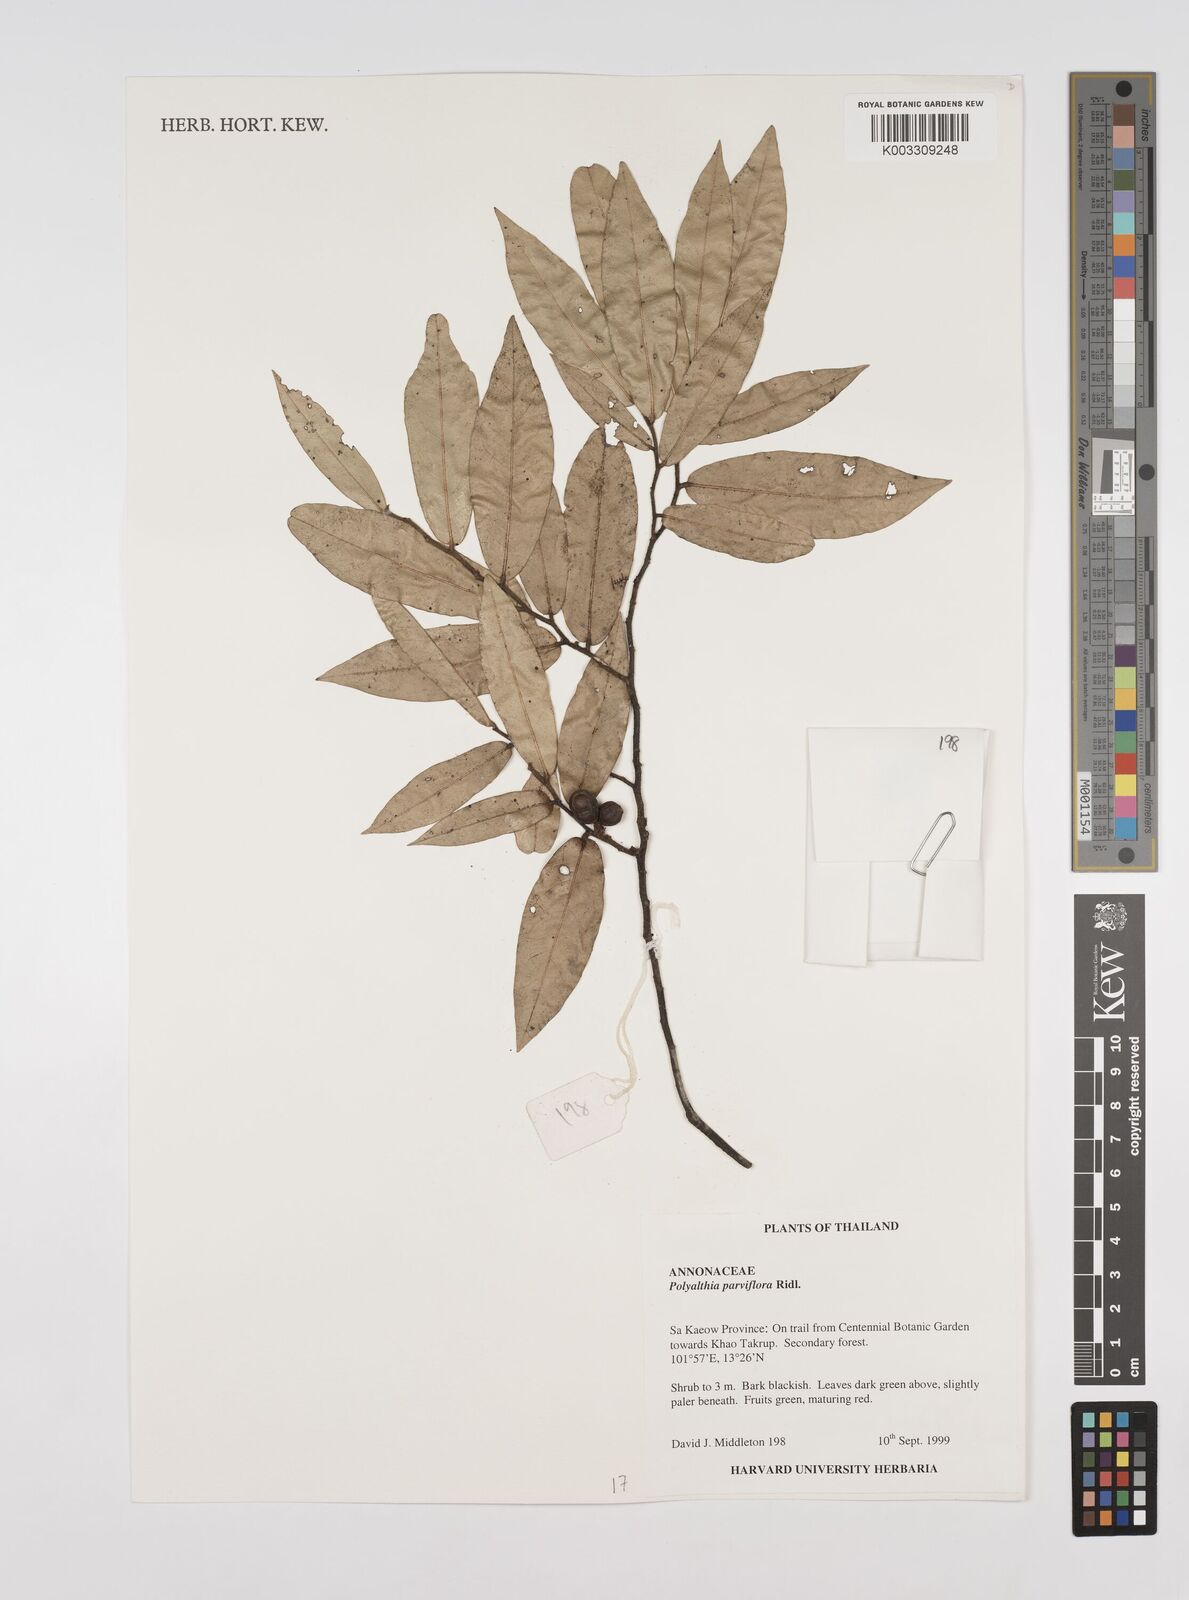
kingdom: Plantae
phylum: Tracheophyta
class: Magnoliopsida
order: Magnoliales
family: Annonaceae
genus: Polyalthia
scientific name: Polyalthia parviflora
